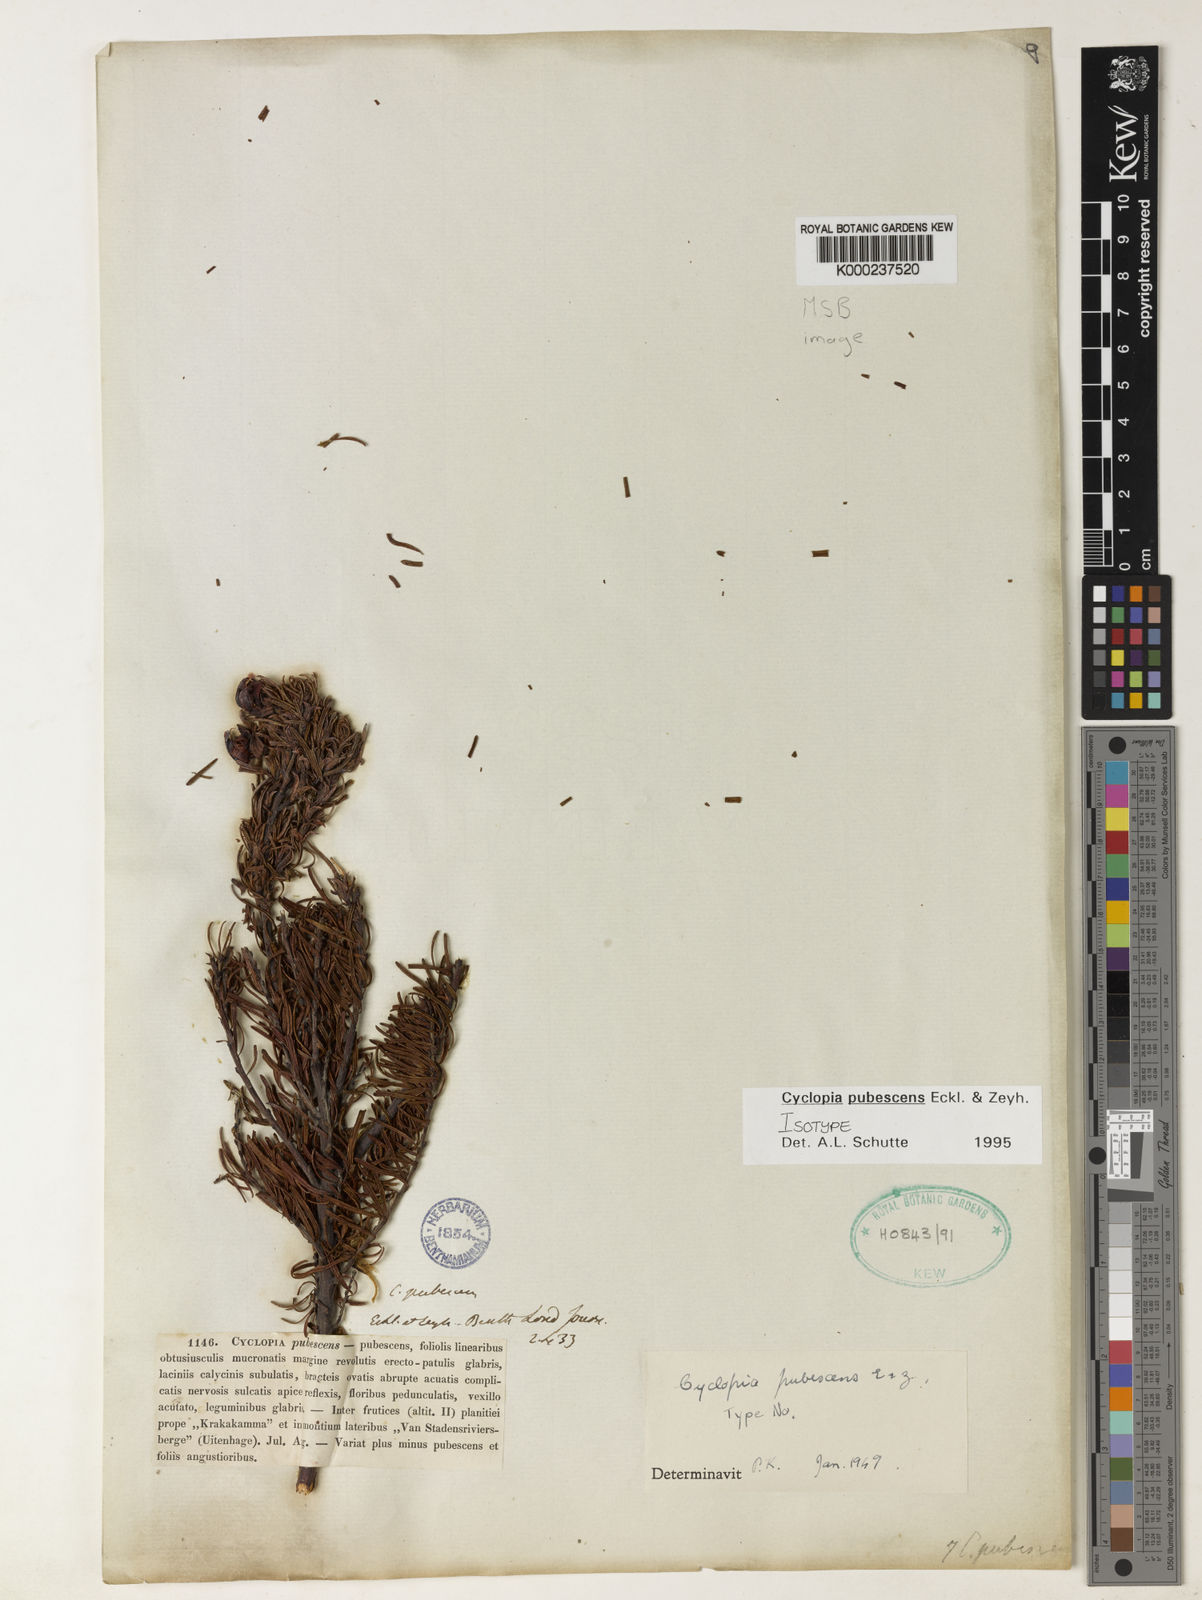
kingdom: Plantae
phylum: Tracheophyta
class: Magnoliopsida
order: Fabales
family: Fabaceae
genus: Cyclopia
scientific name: Cyclopia pubescens
